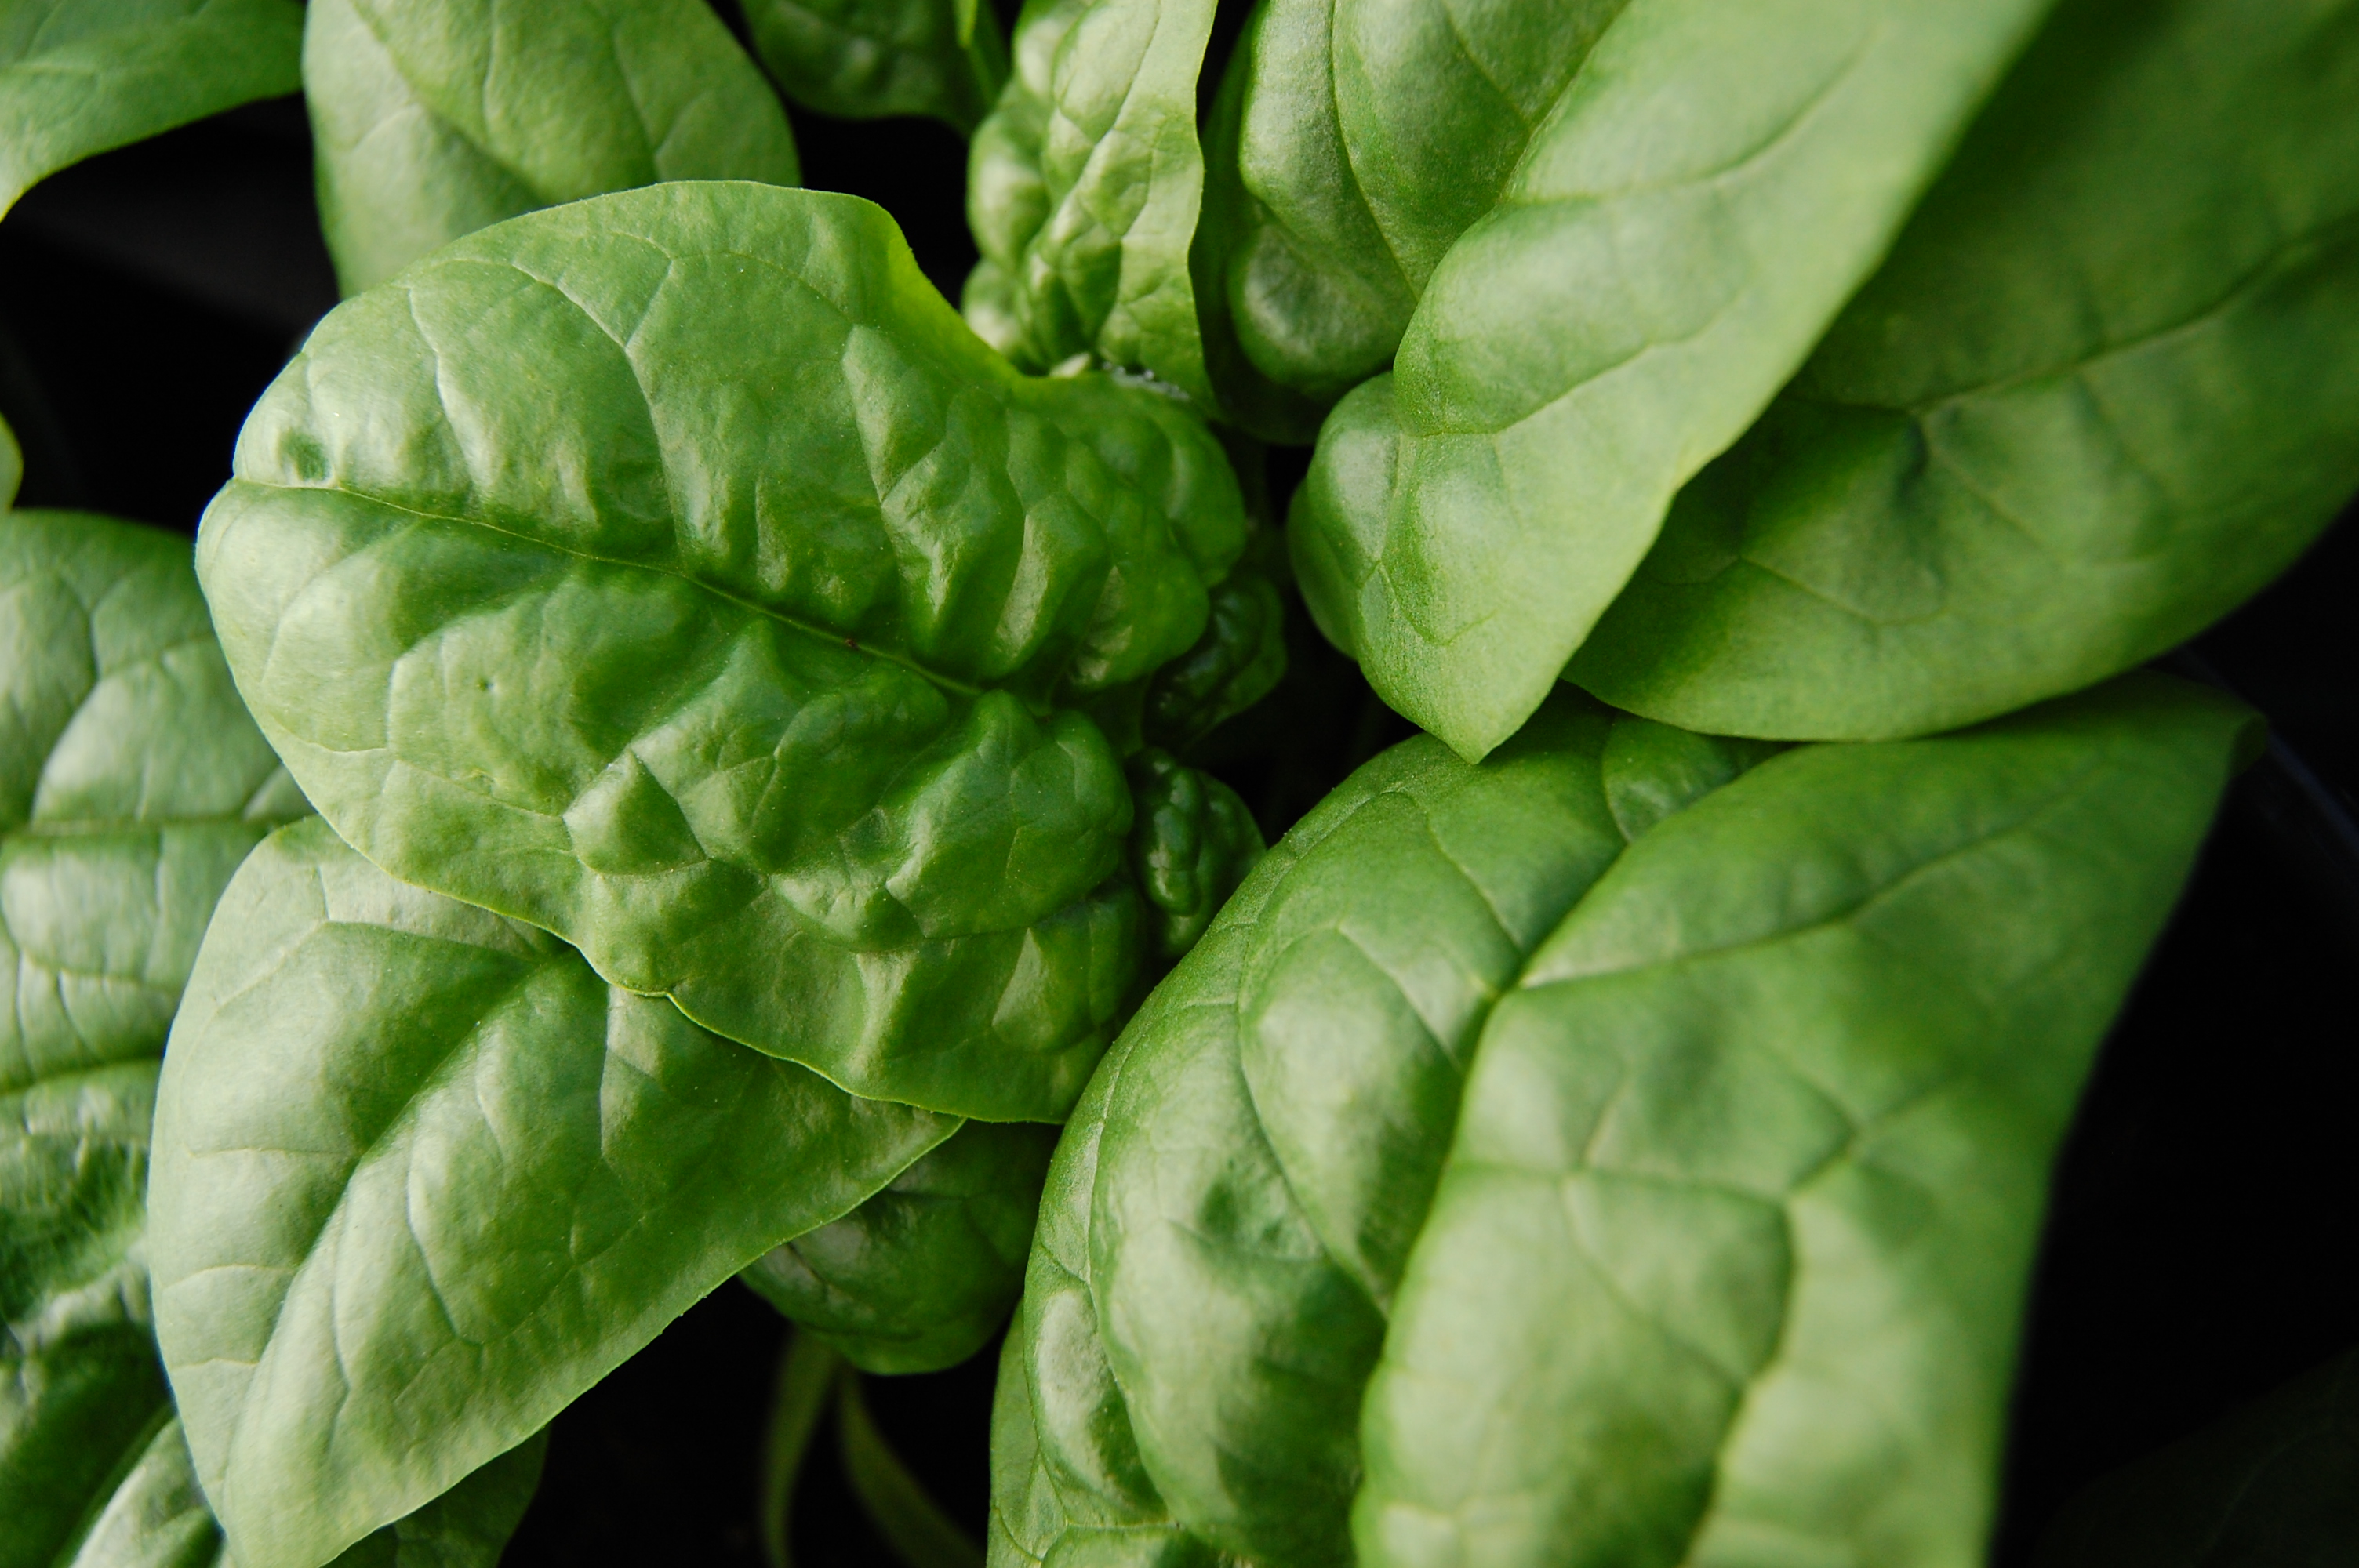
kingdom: Plantae
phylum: Tracheophyta
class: Magnoliopsida
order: Caryophyllales
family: Amaranthaceae
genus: Spinacia
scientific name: Spinacia oleracea
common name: Spinach
